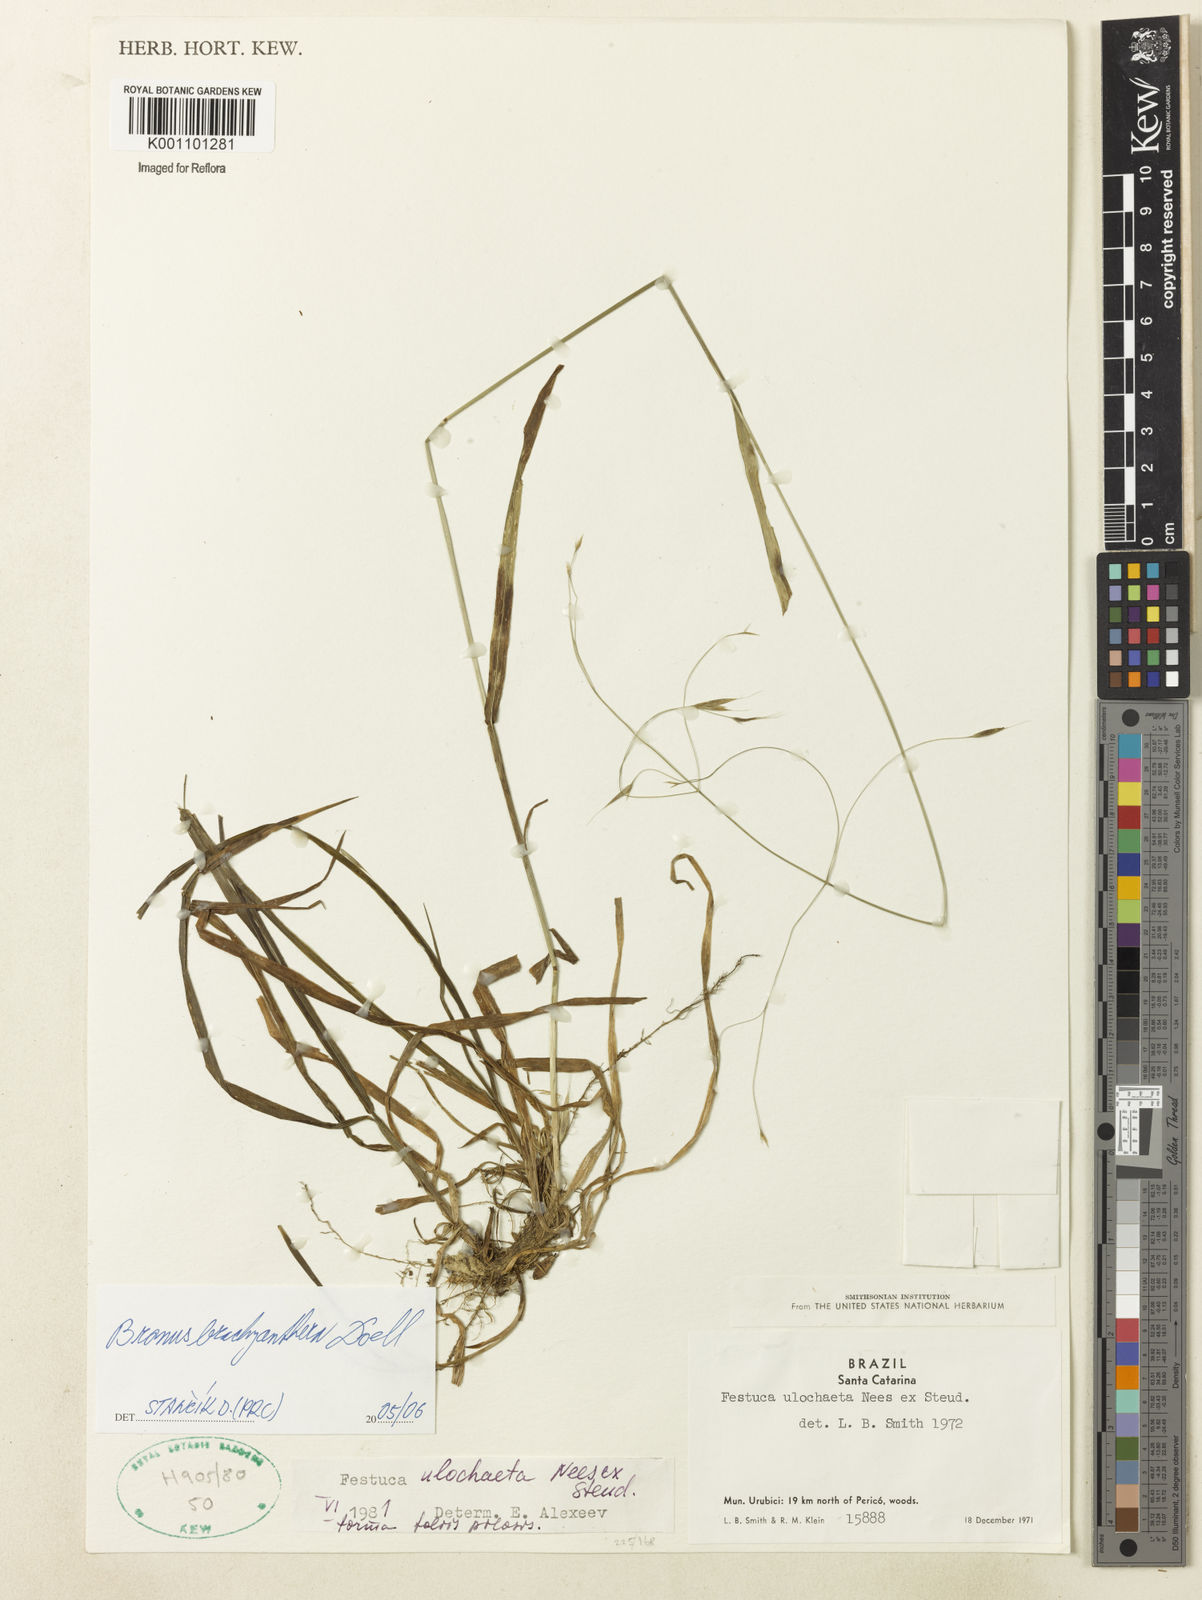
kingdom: Plantae
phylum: Tracheophyta
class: Liliopsida
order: Poales
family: Poaceae
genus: Bromus
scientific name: Bromus
